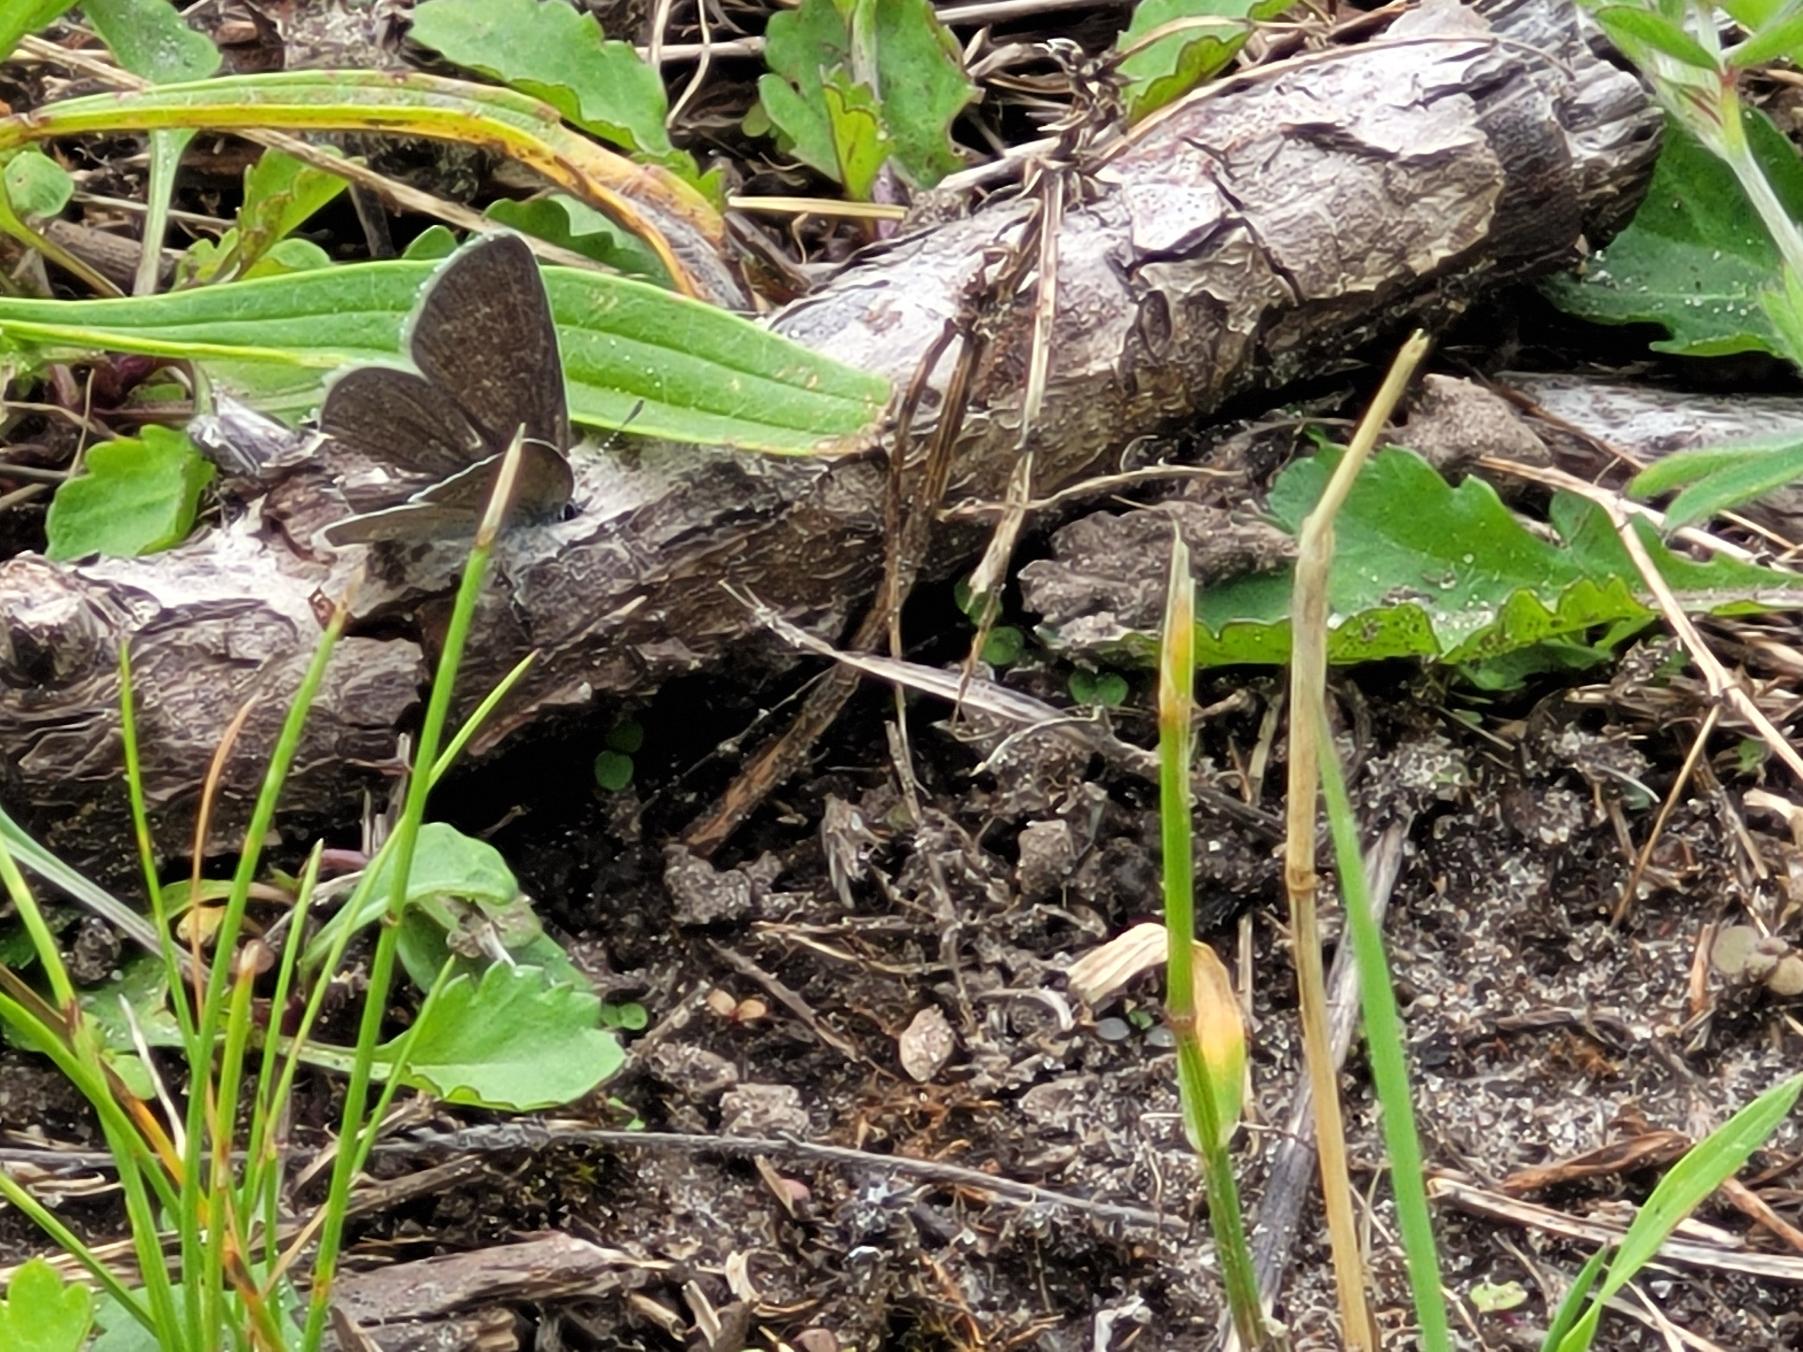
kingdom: Animalia
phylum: Arthropoda
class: Insecta
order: Lepidoptera
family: Lycaenidae
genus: Cupido
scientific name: Cupido minimus
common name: Dværgblåfugl
